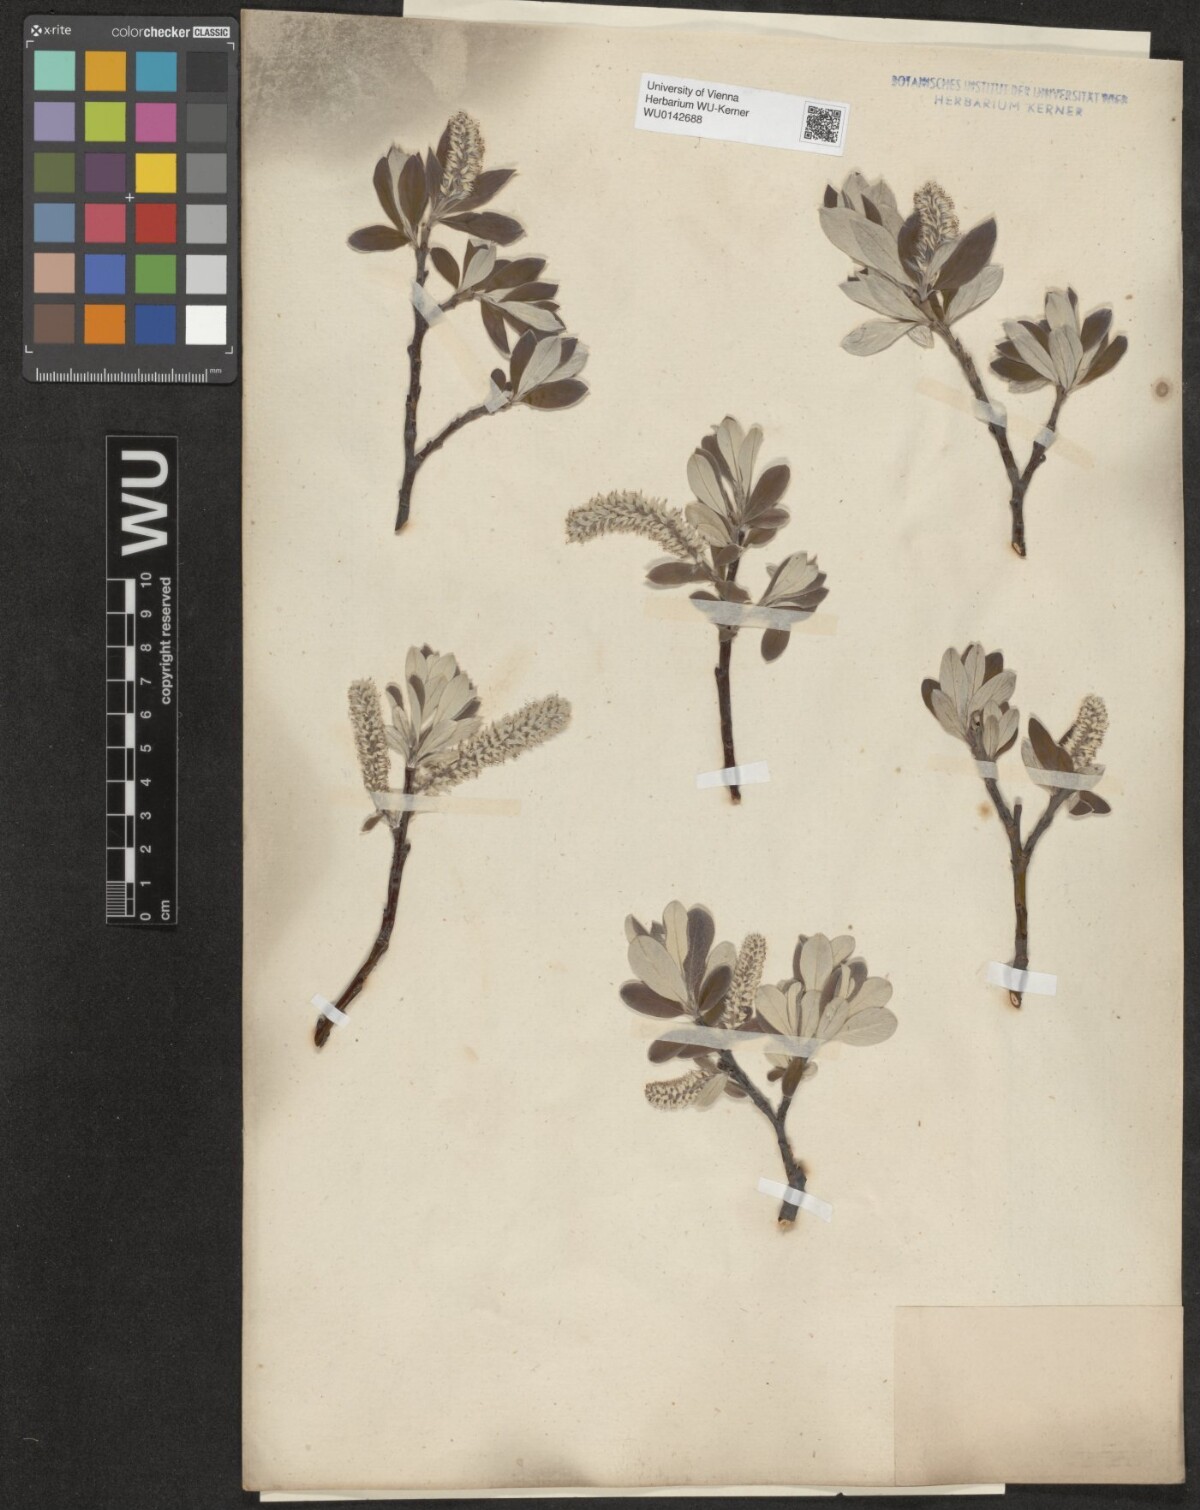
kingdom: Plantae
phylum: Tracheophyta
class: Magnoliopsida
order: Malpighiales
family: Salicaceae
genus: Salix
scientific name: Salix helvetica
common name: Swiss willow
